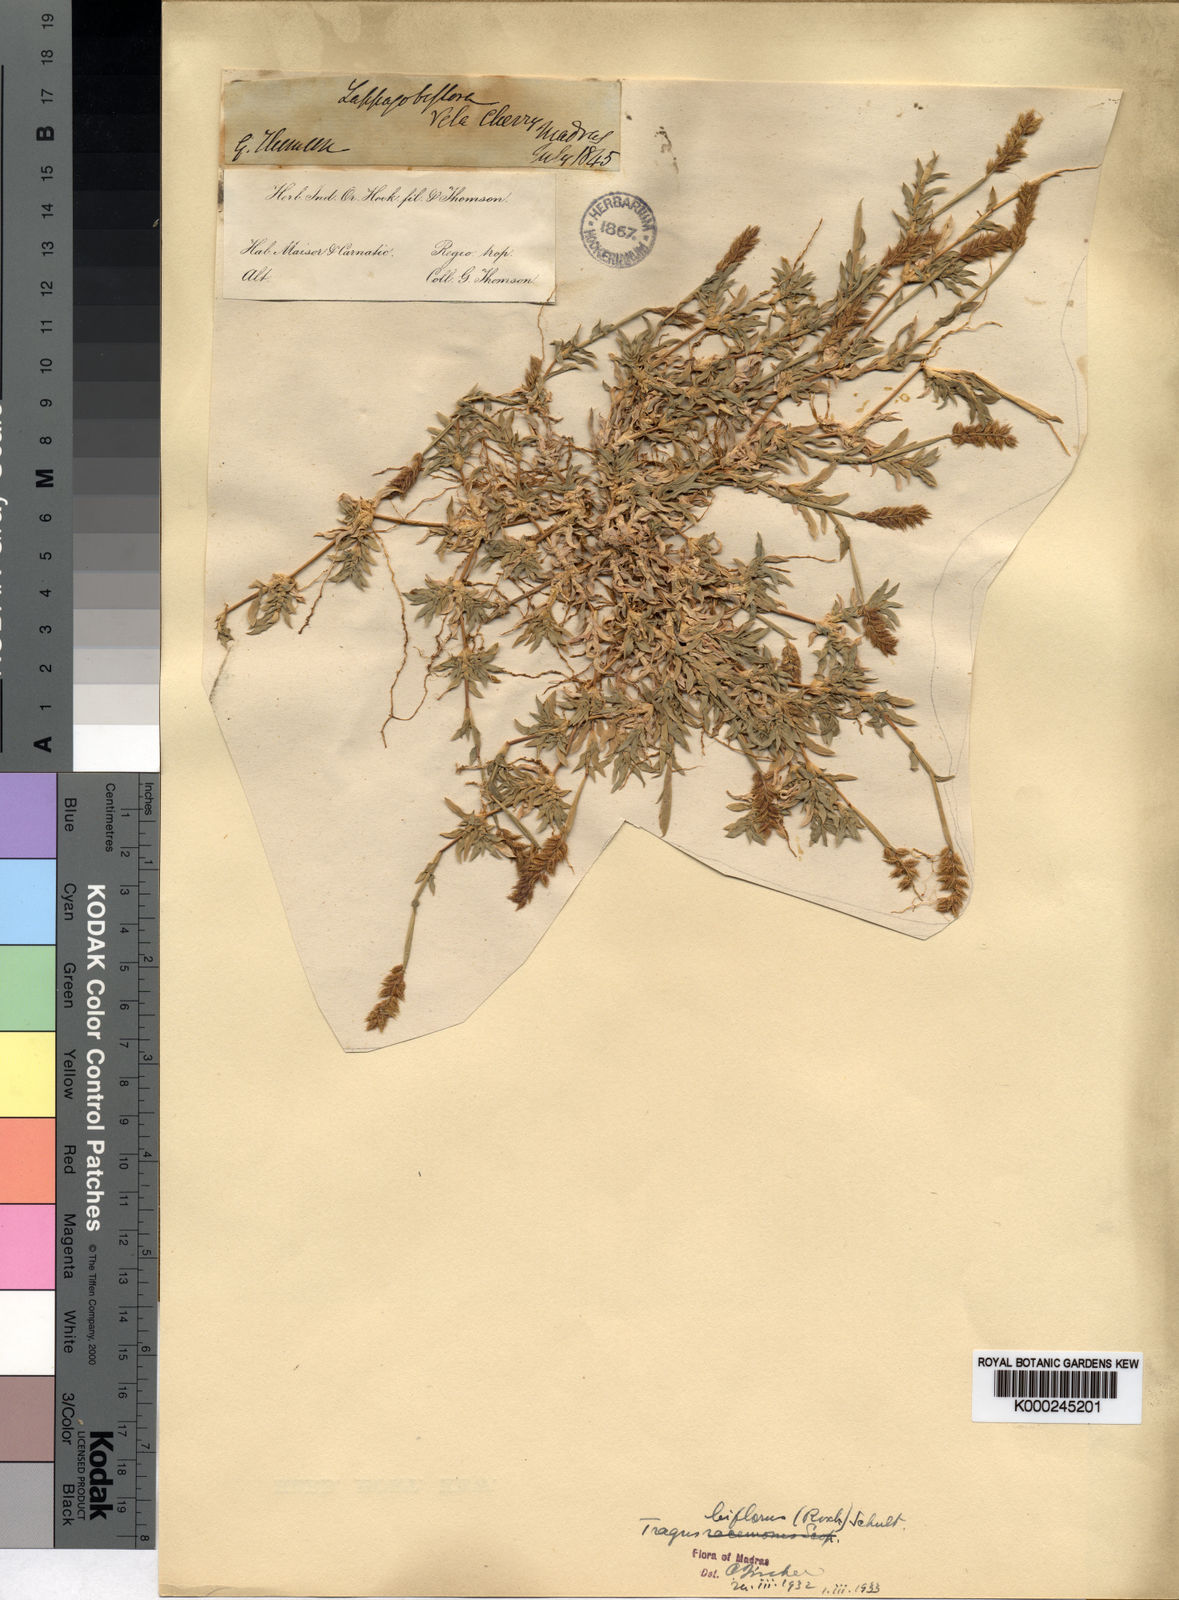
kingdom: Plantae
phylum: Tracheophyta
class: Liliopsida
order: Poales
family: Poaceae
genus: Tragus
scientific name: Tragus mongolorum
